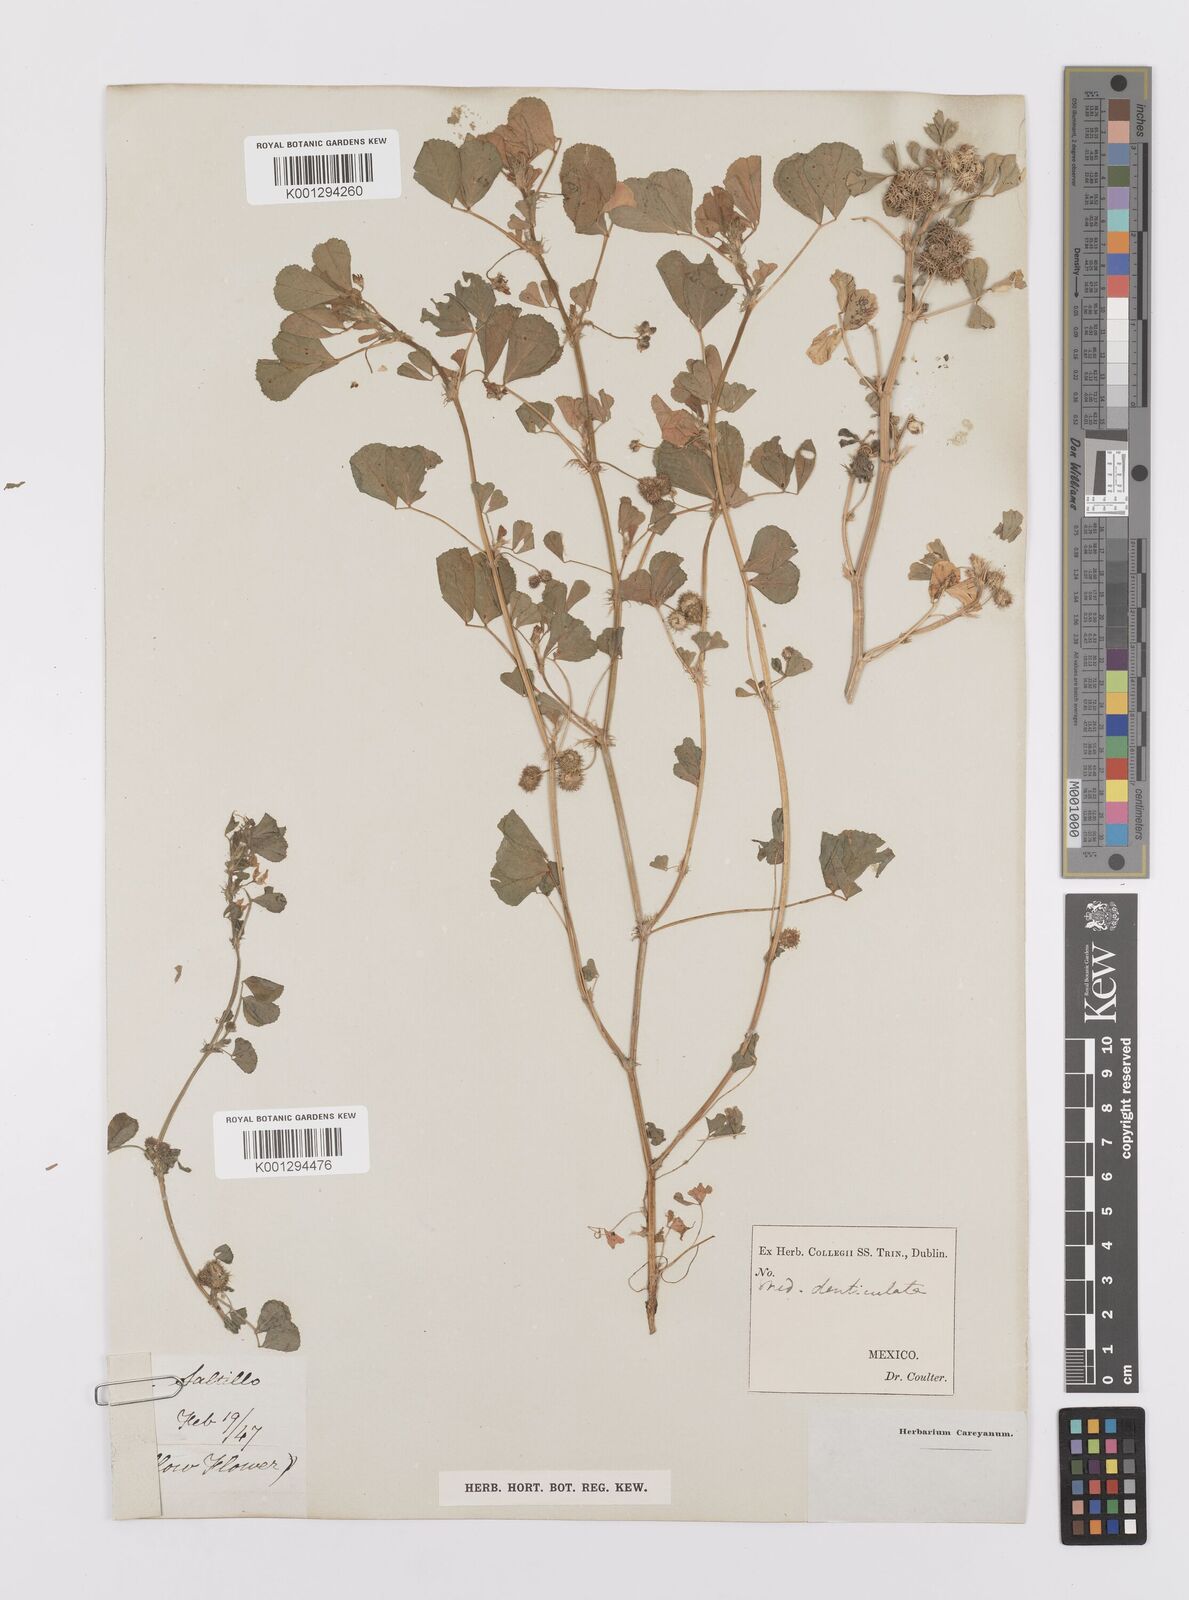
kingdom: Plantae
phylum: Tracheophyta
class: Magnoliopsida
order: Fabales
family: Fabaceae
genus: Medicago
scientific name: Medicago polymorpha
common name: Burclover
